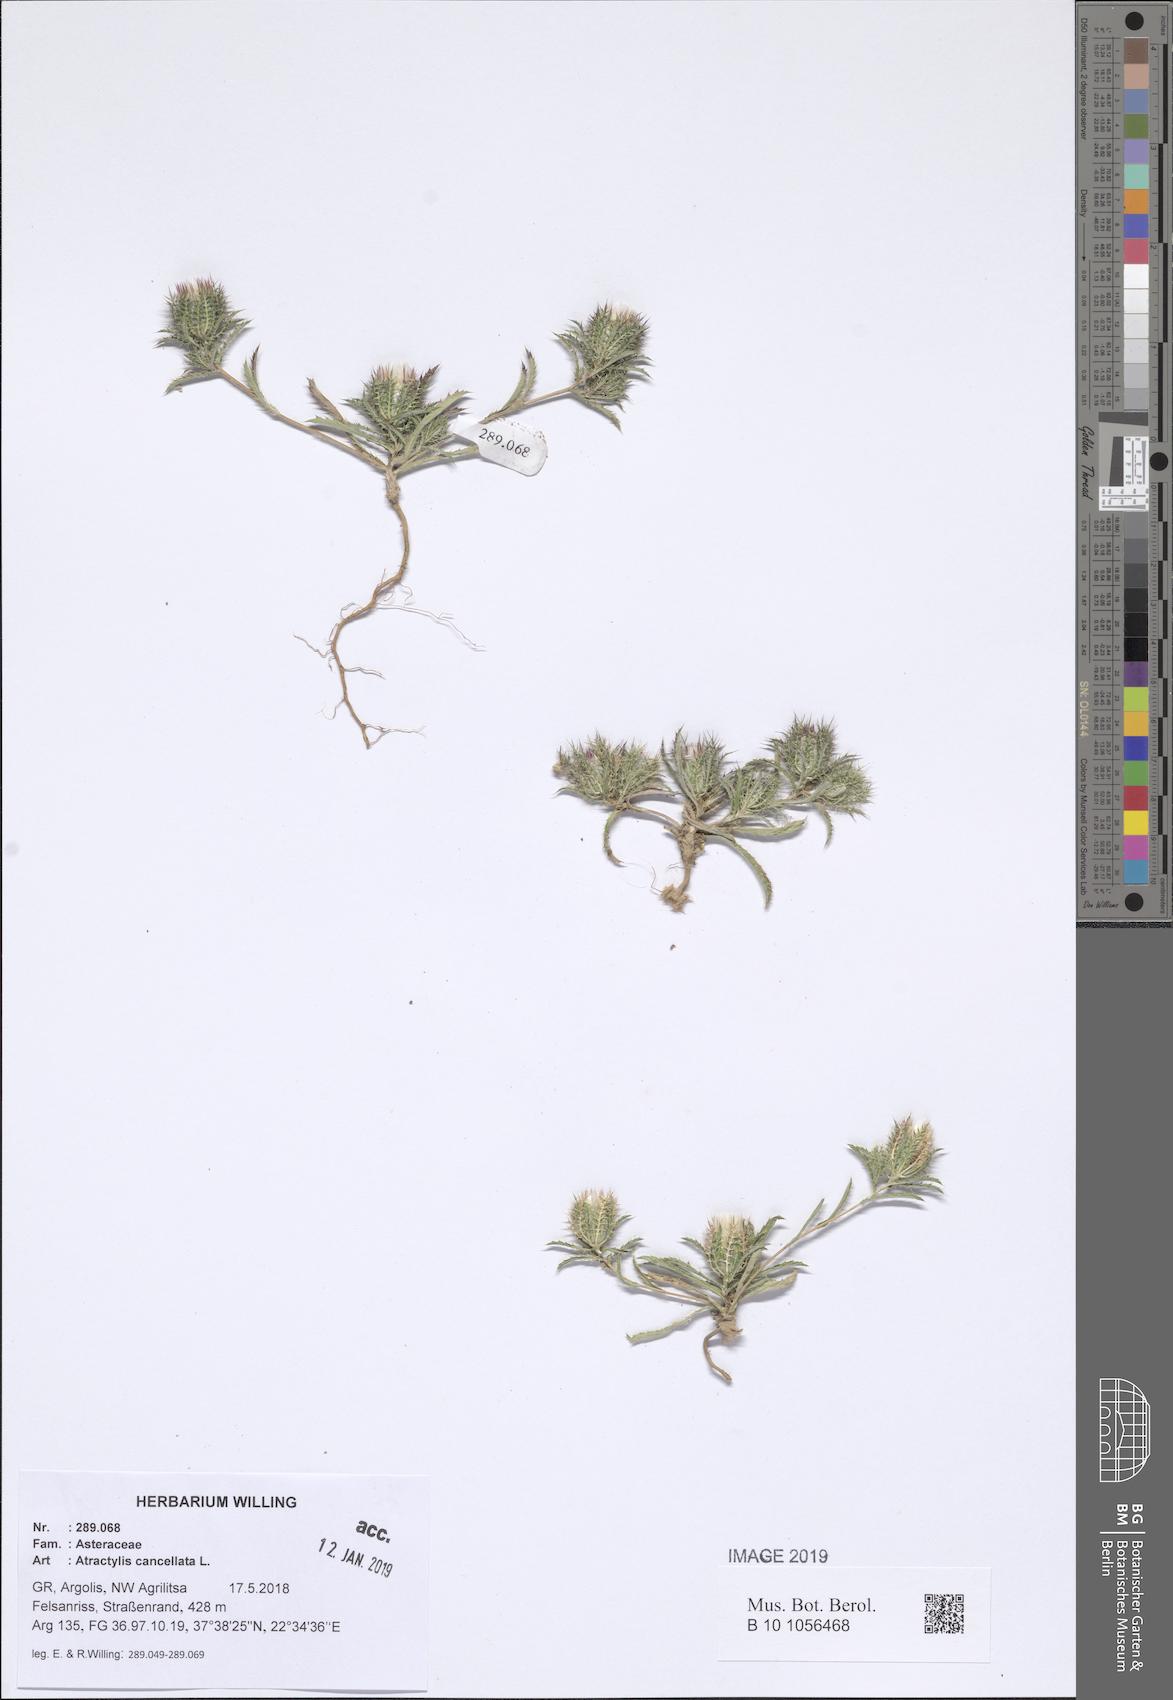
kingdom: Plantae
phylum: Tracheophyta
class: Magnoliopsida
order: Asterales
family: Asteraceae
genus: Atractylis
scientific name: Atractylis cancellata
